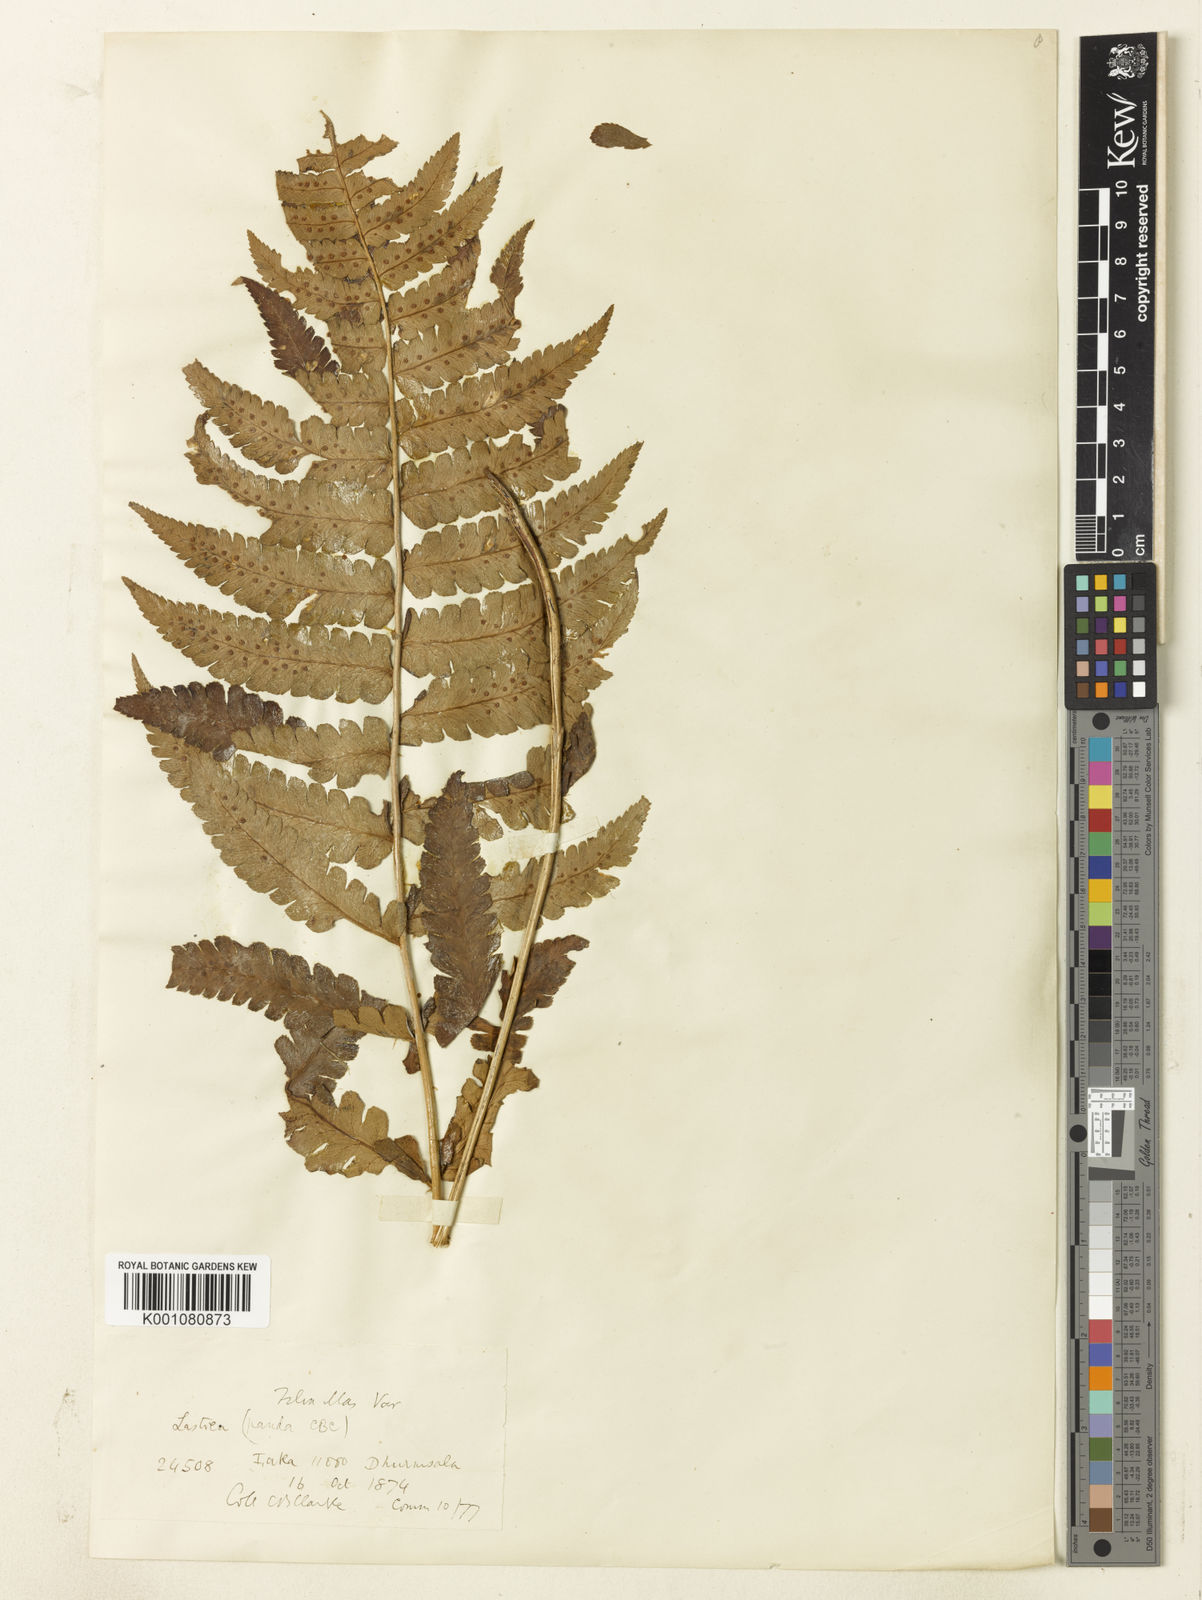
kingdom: Plantae
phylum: Tracheophyta
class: Polypodiopsida
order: Polypodiales
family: Dryopteridaceae
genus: Dryopteris
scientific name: Dryopteris panda
